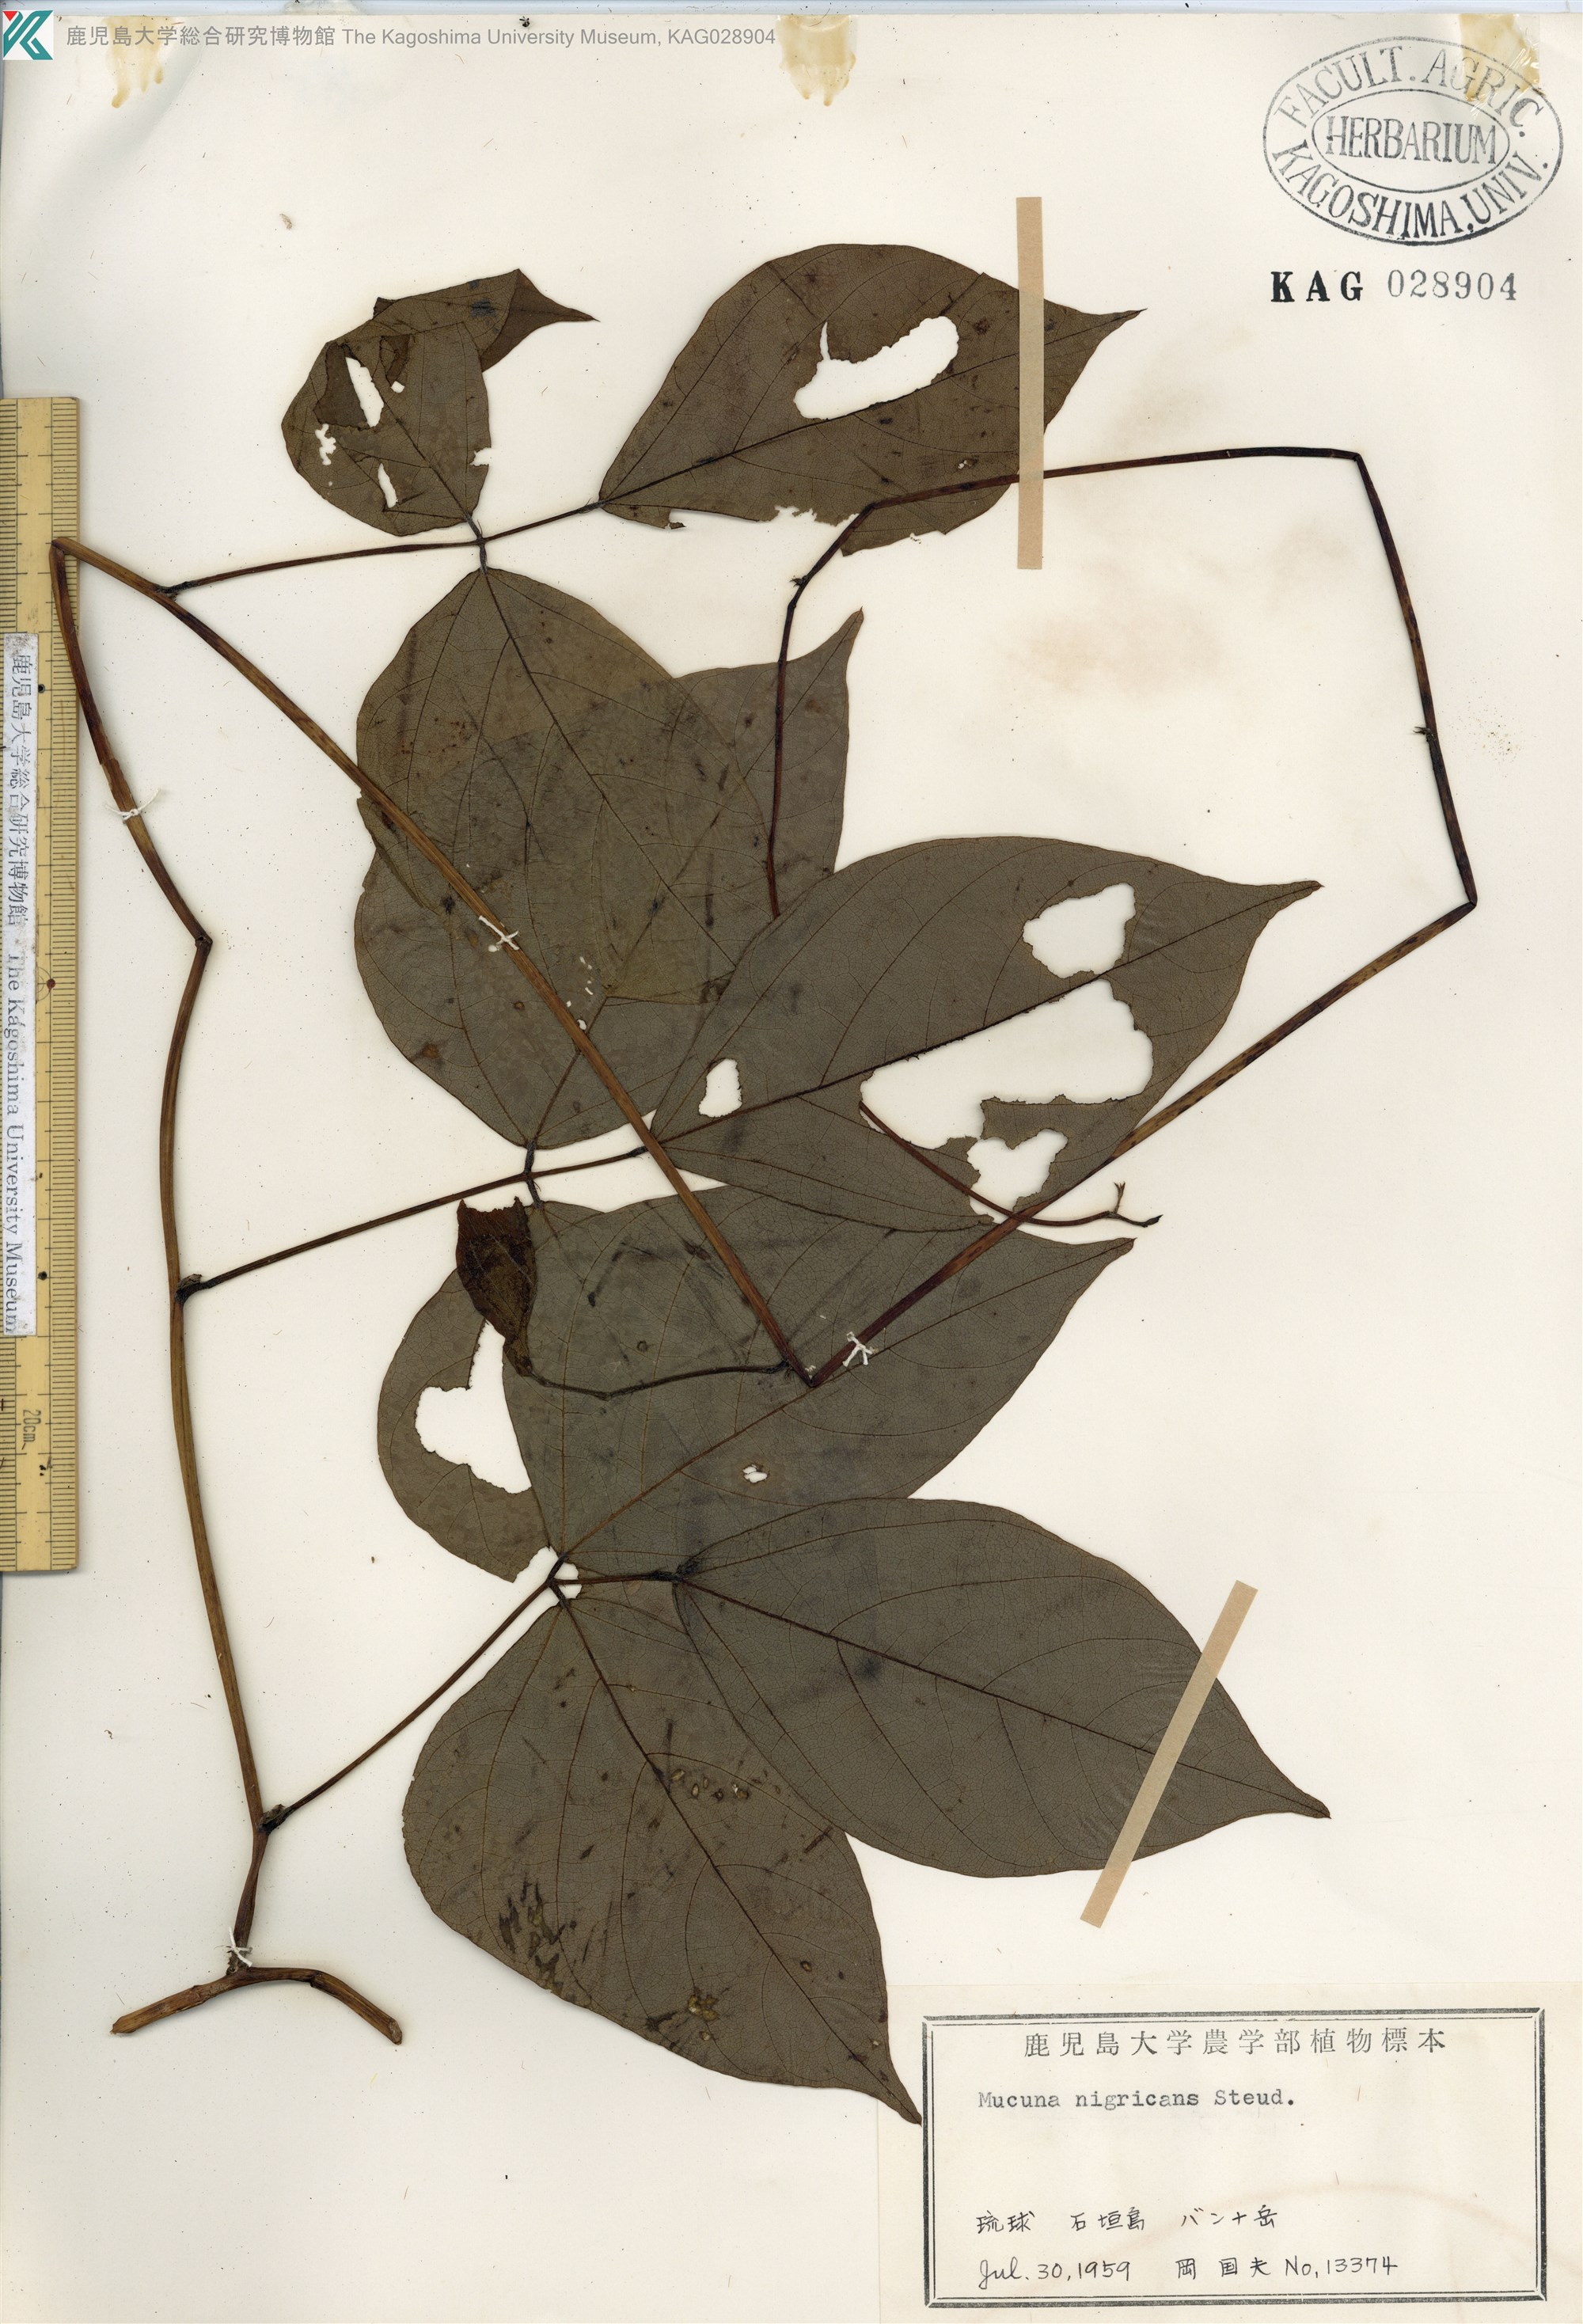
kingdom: Plantae
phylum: Tracheophyta
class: Magnoliopsida
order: Fabales
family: Fabaceae
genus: Mucuna
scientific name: Mucuna membranacea
